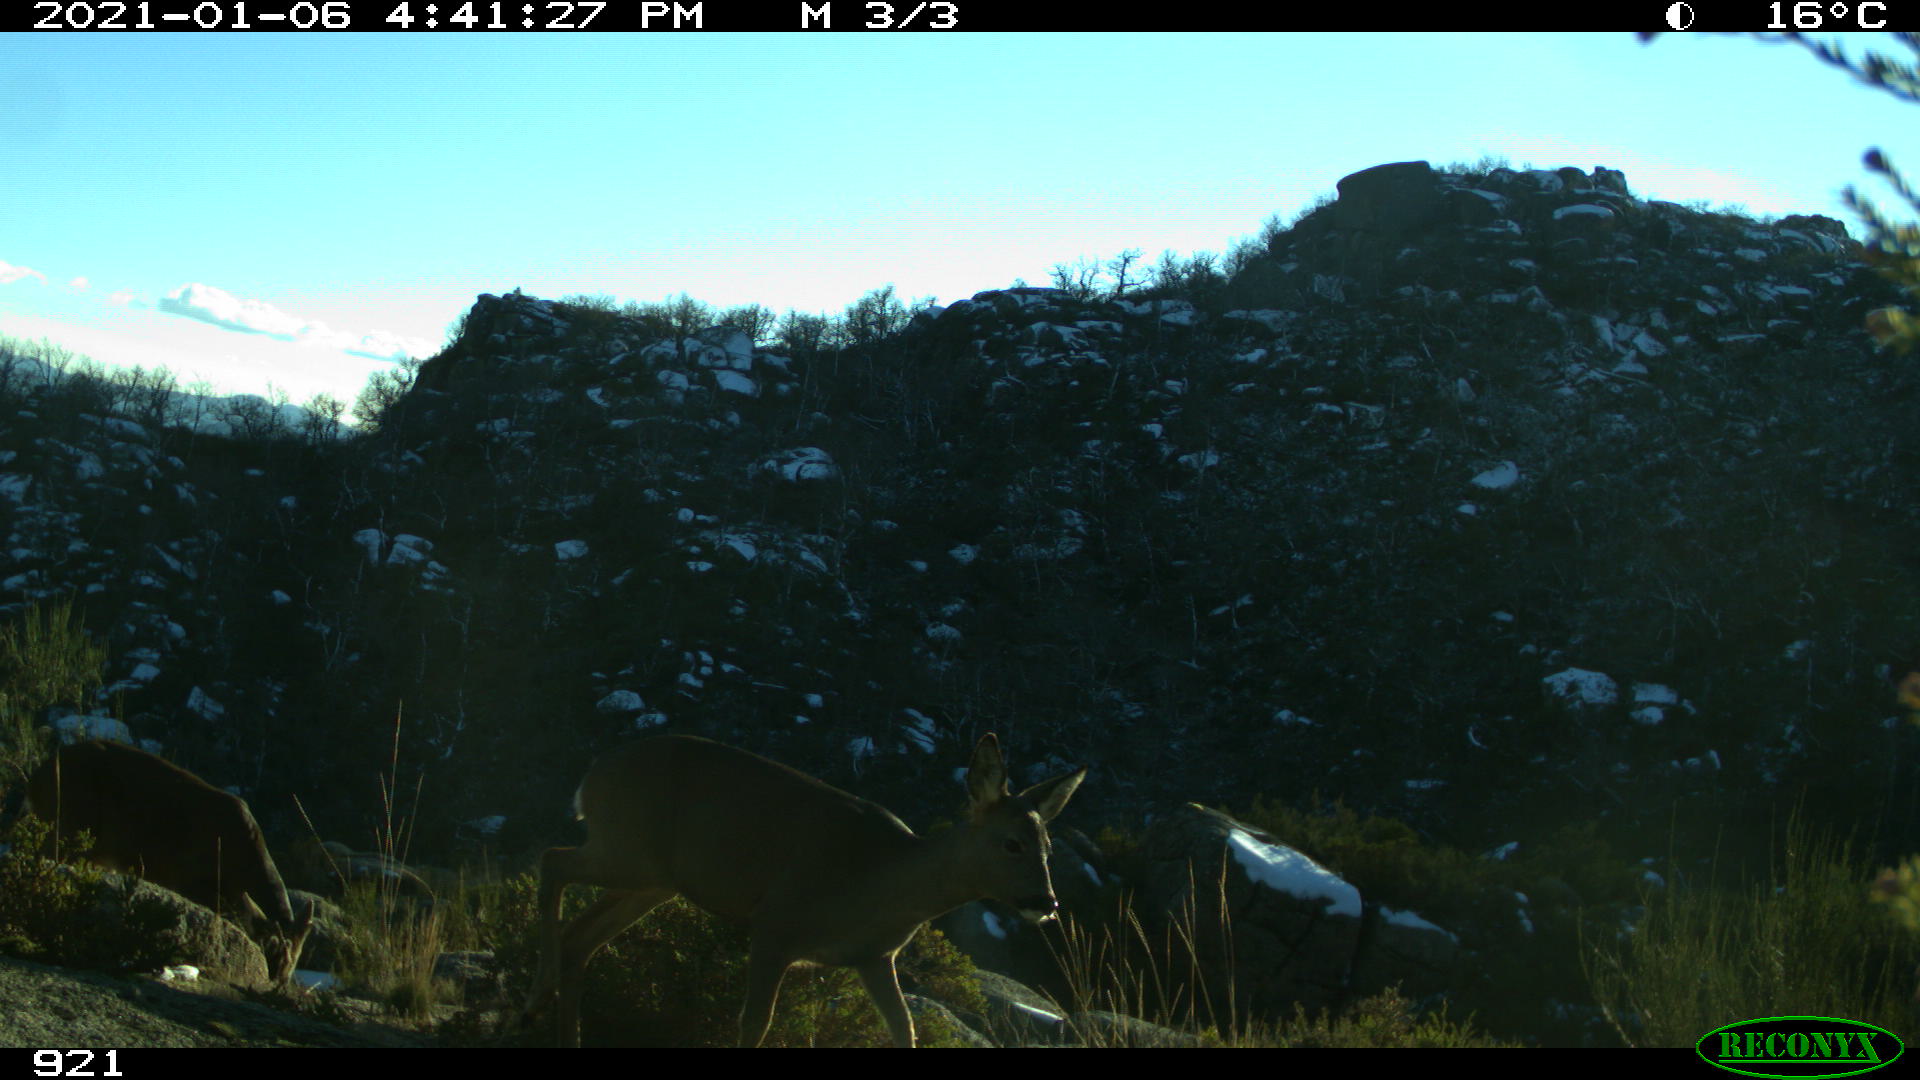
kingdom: Animalia
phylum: Chordata
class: Mammalia
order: Artiodactyla
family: Cervidae
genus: Capreolus
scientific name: Capreolus capreolus
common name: Western roe deer
